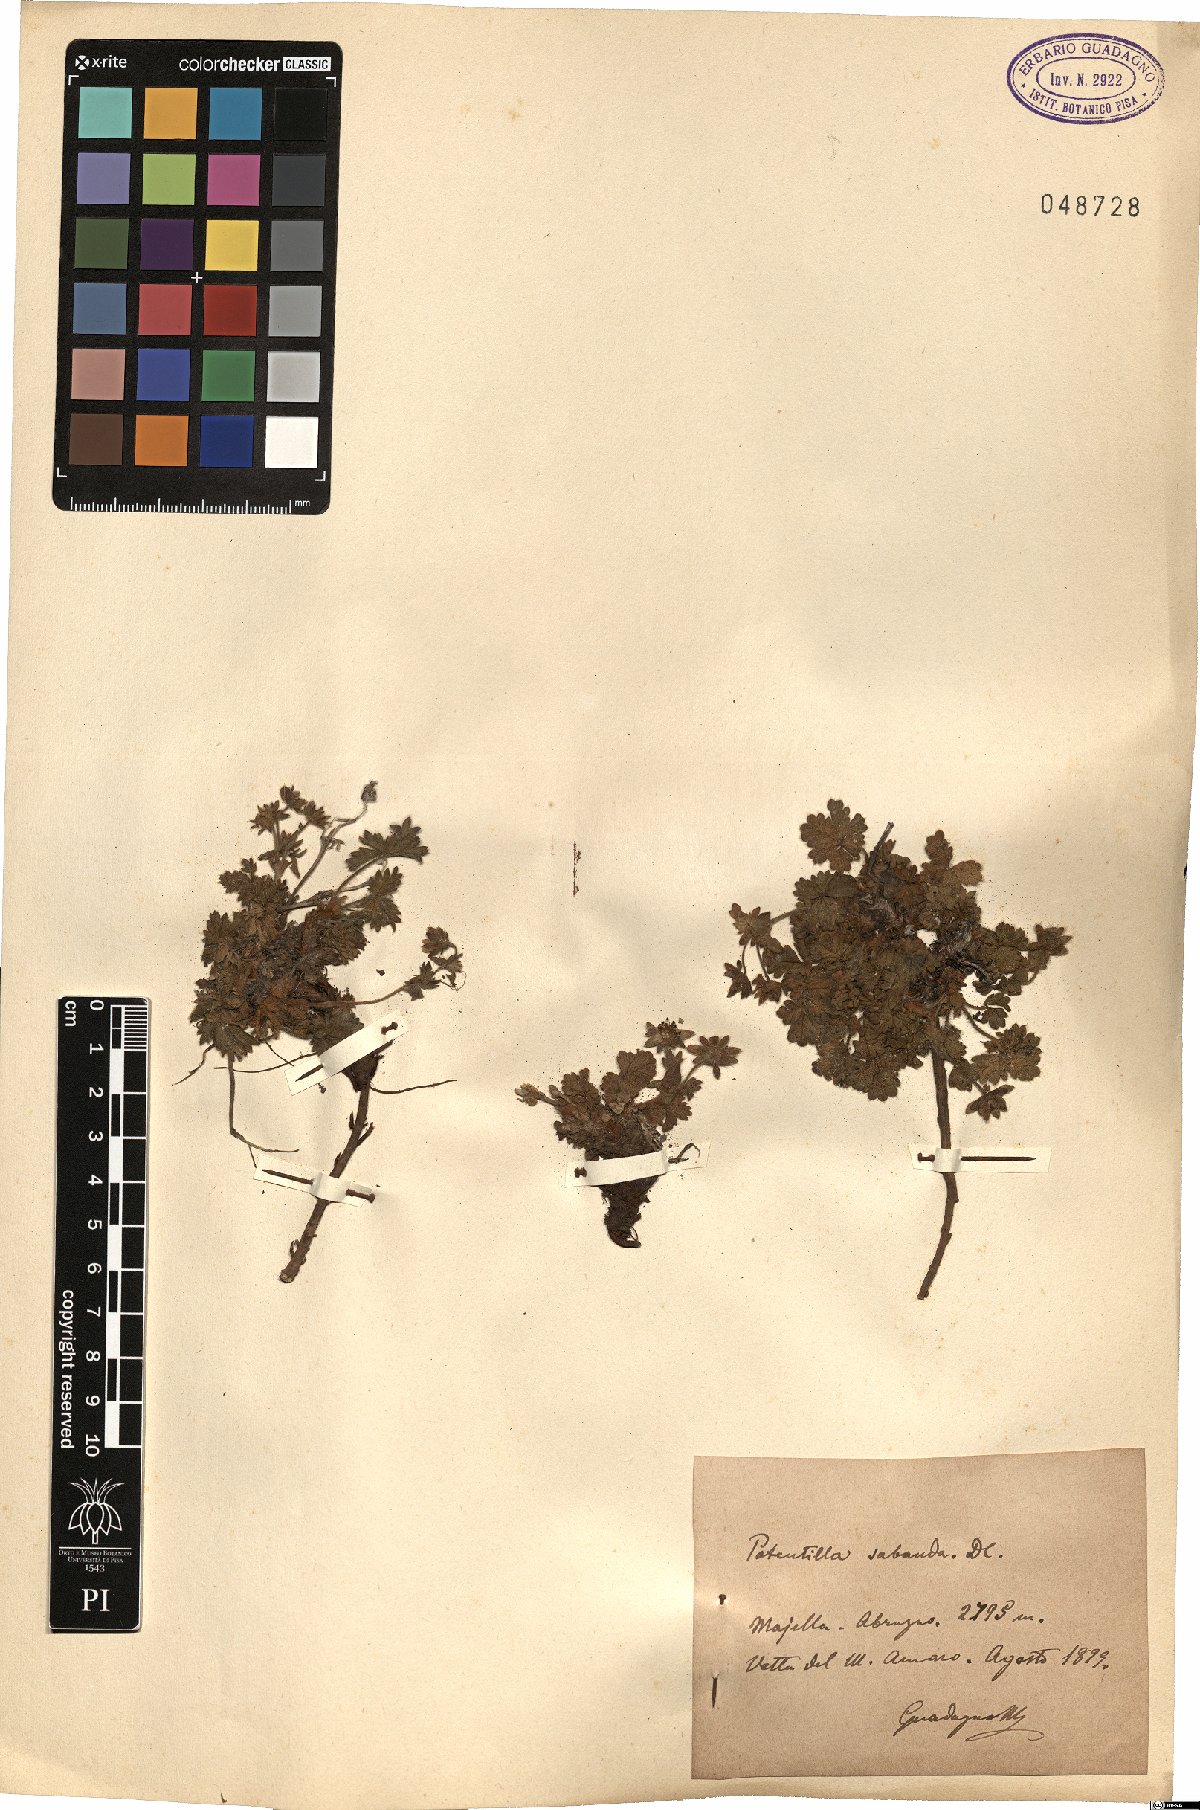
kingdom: Plantae
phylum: Tracheophyta
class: Magnoliopsida
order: Rosales
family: Rosaceae
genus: Potentilla
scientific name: Potentilla crantzii
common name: Alpine cinquefoil
